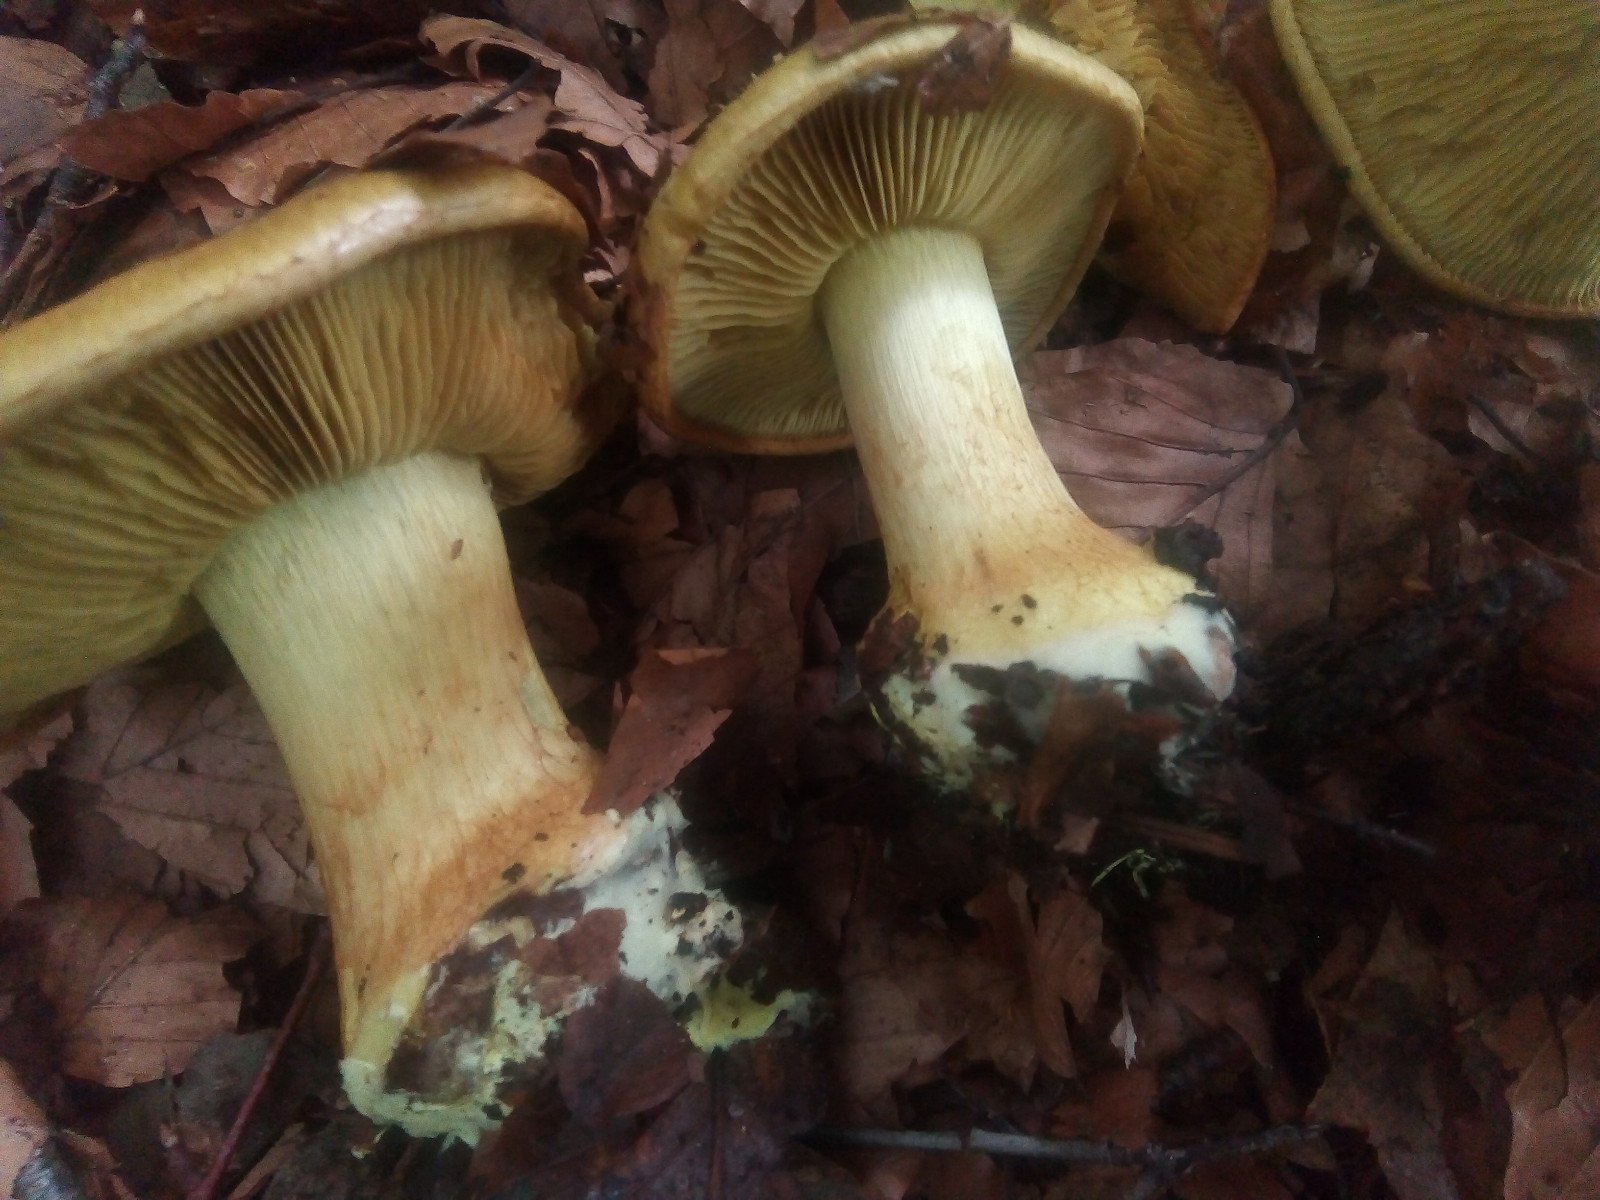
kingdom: Fungi
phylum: Basidiomycota
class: Agaricomycetes
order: Agaricales
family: Cortinariaceae
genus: Calonarius
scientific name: Calonarius citrinus
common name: citrongul slørhat
